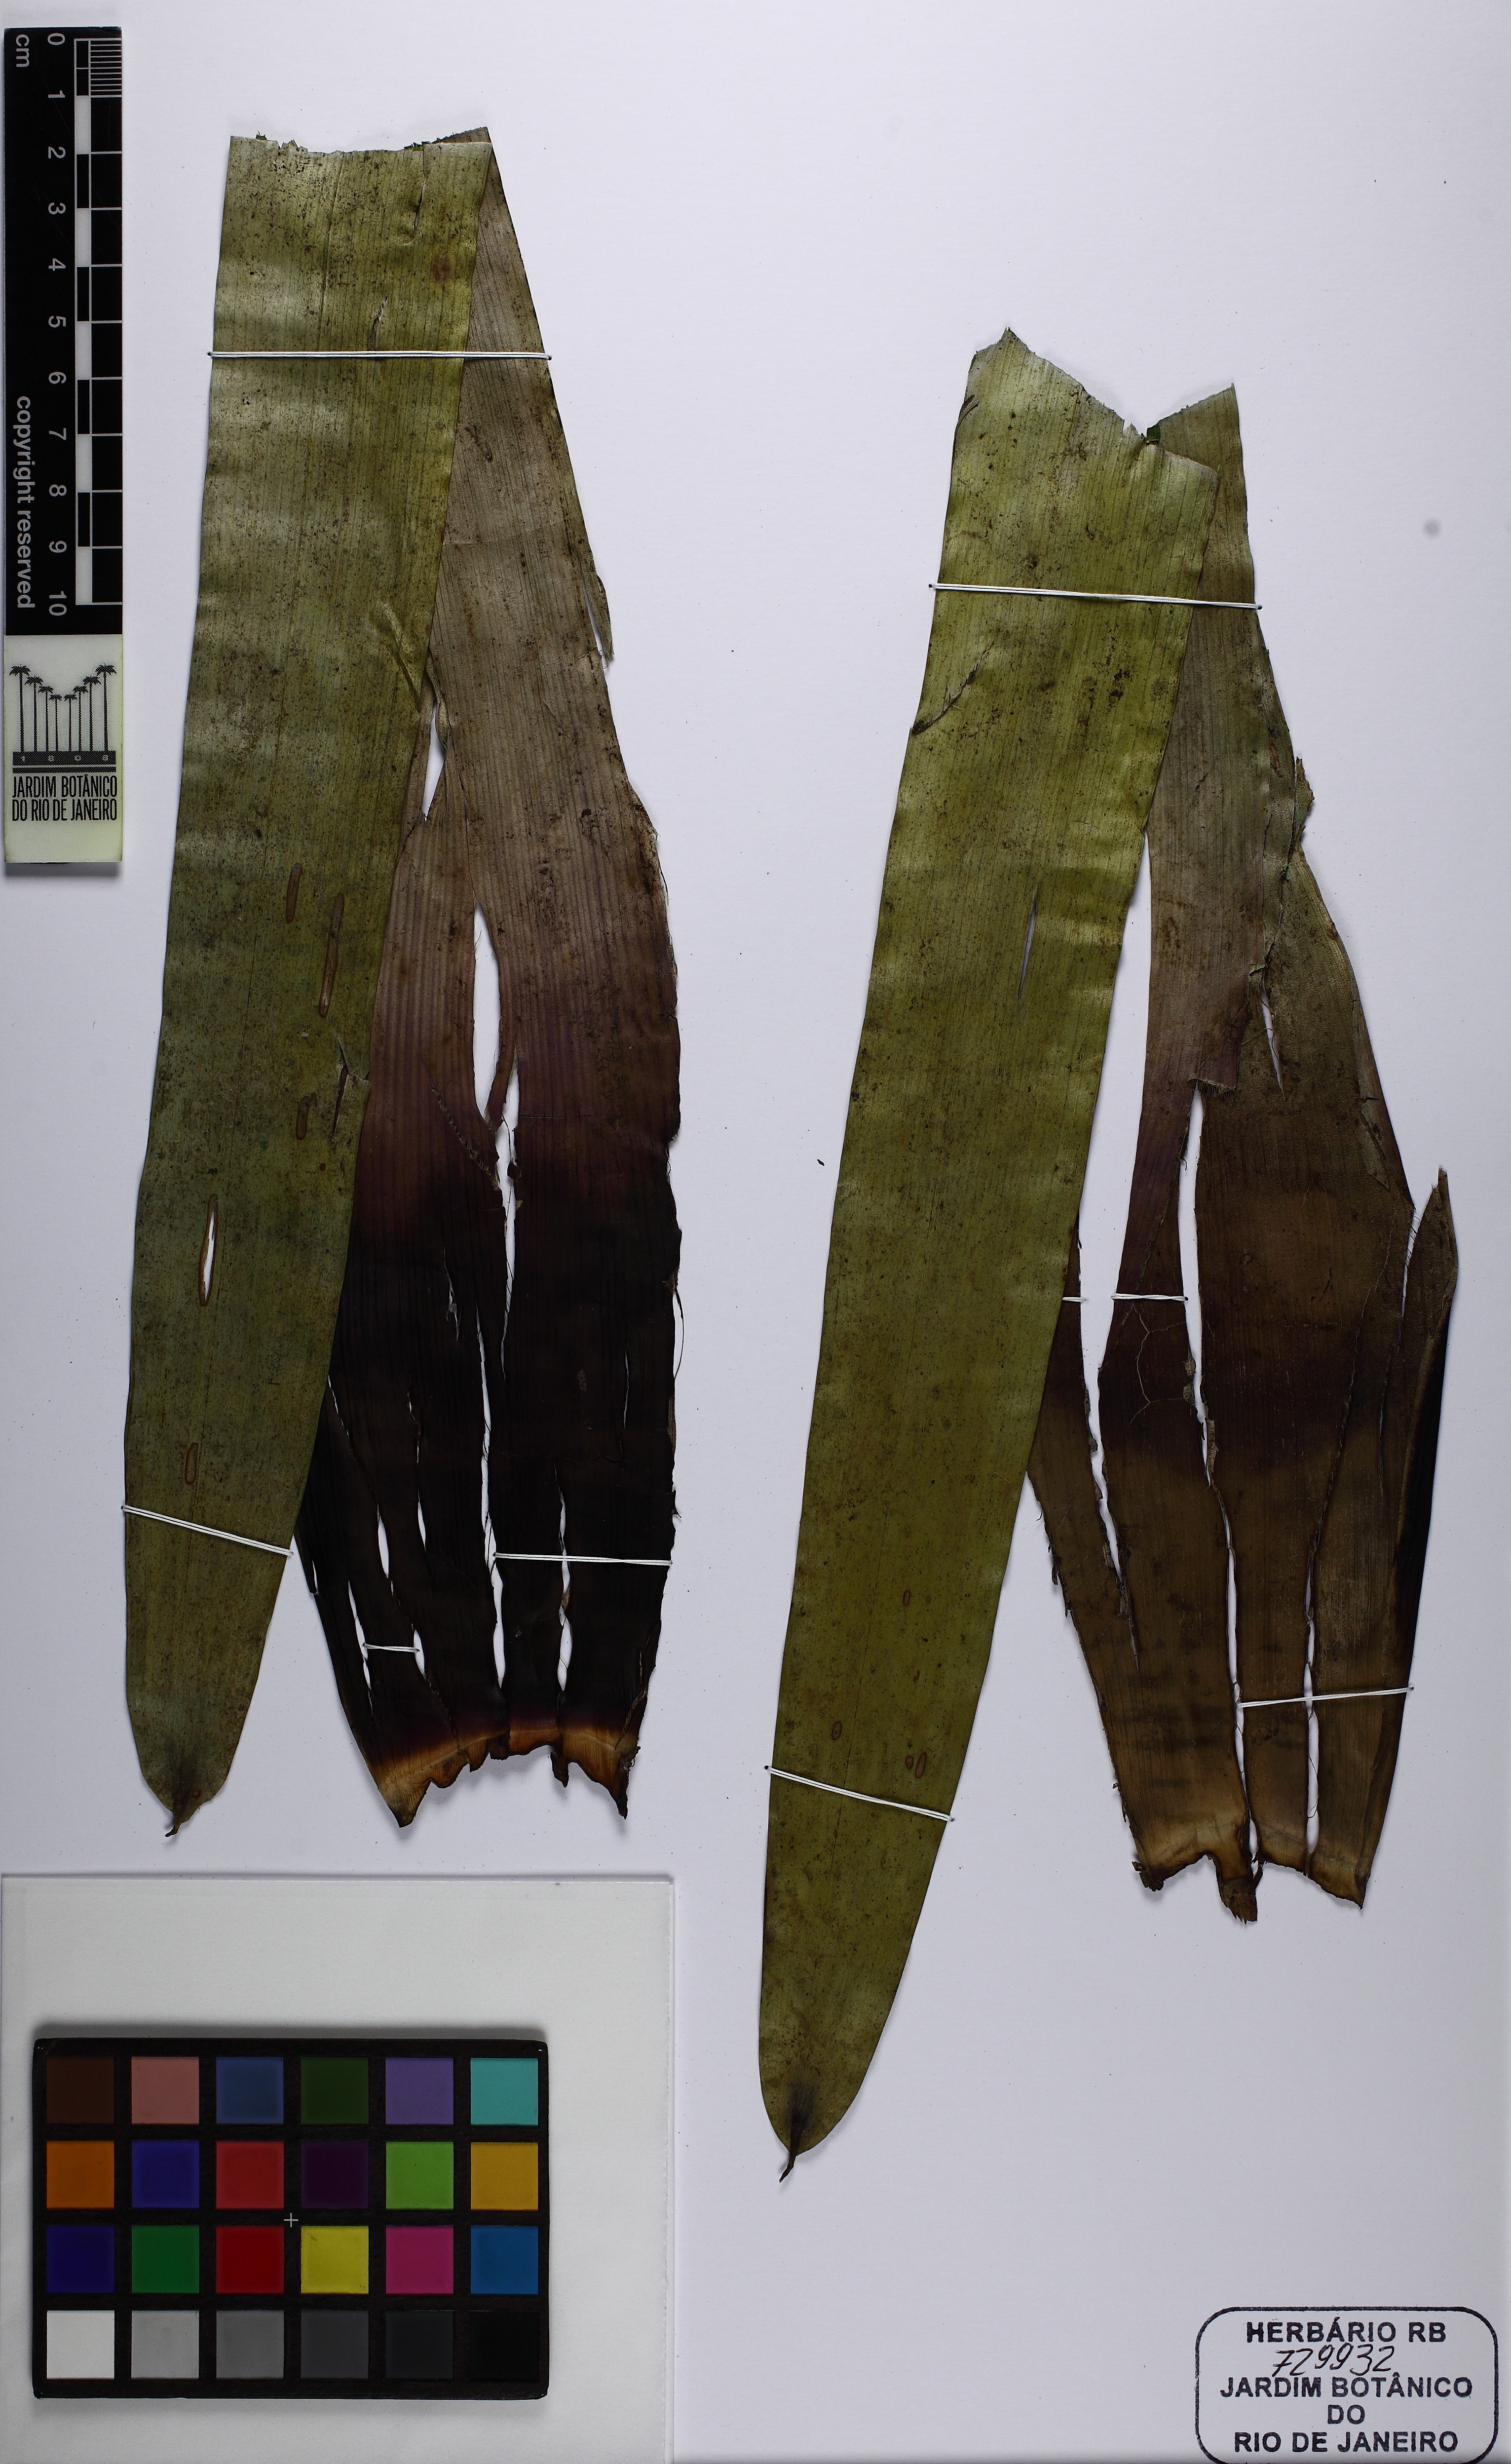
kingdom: Plantae
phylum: Tracheophyta
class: Liliopsida
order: Poales
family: Bromeliaceae
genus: Vriesea
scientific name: Vriesea jonghei
